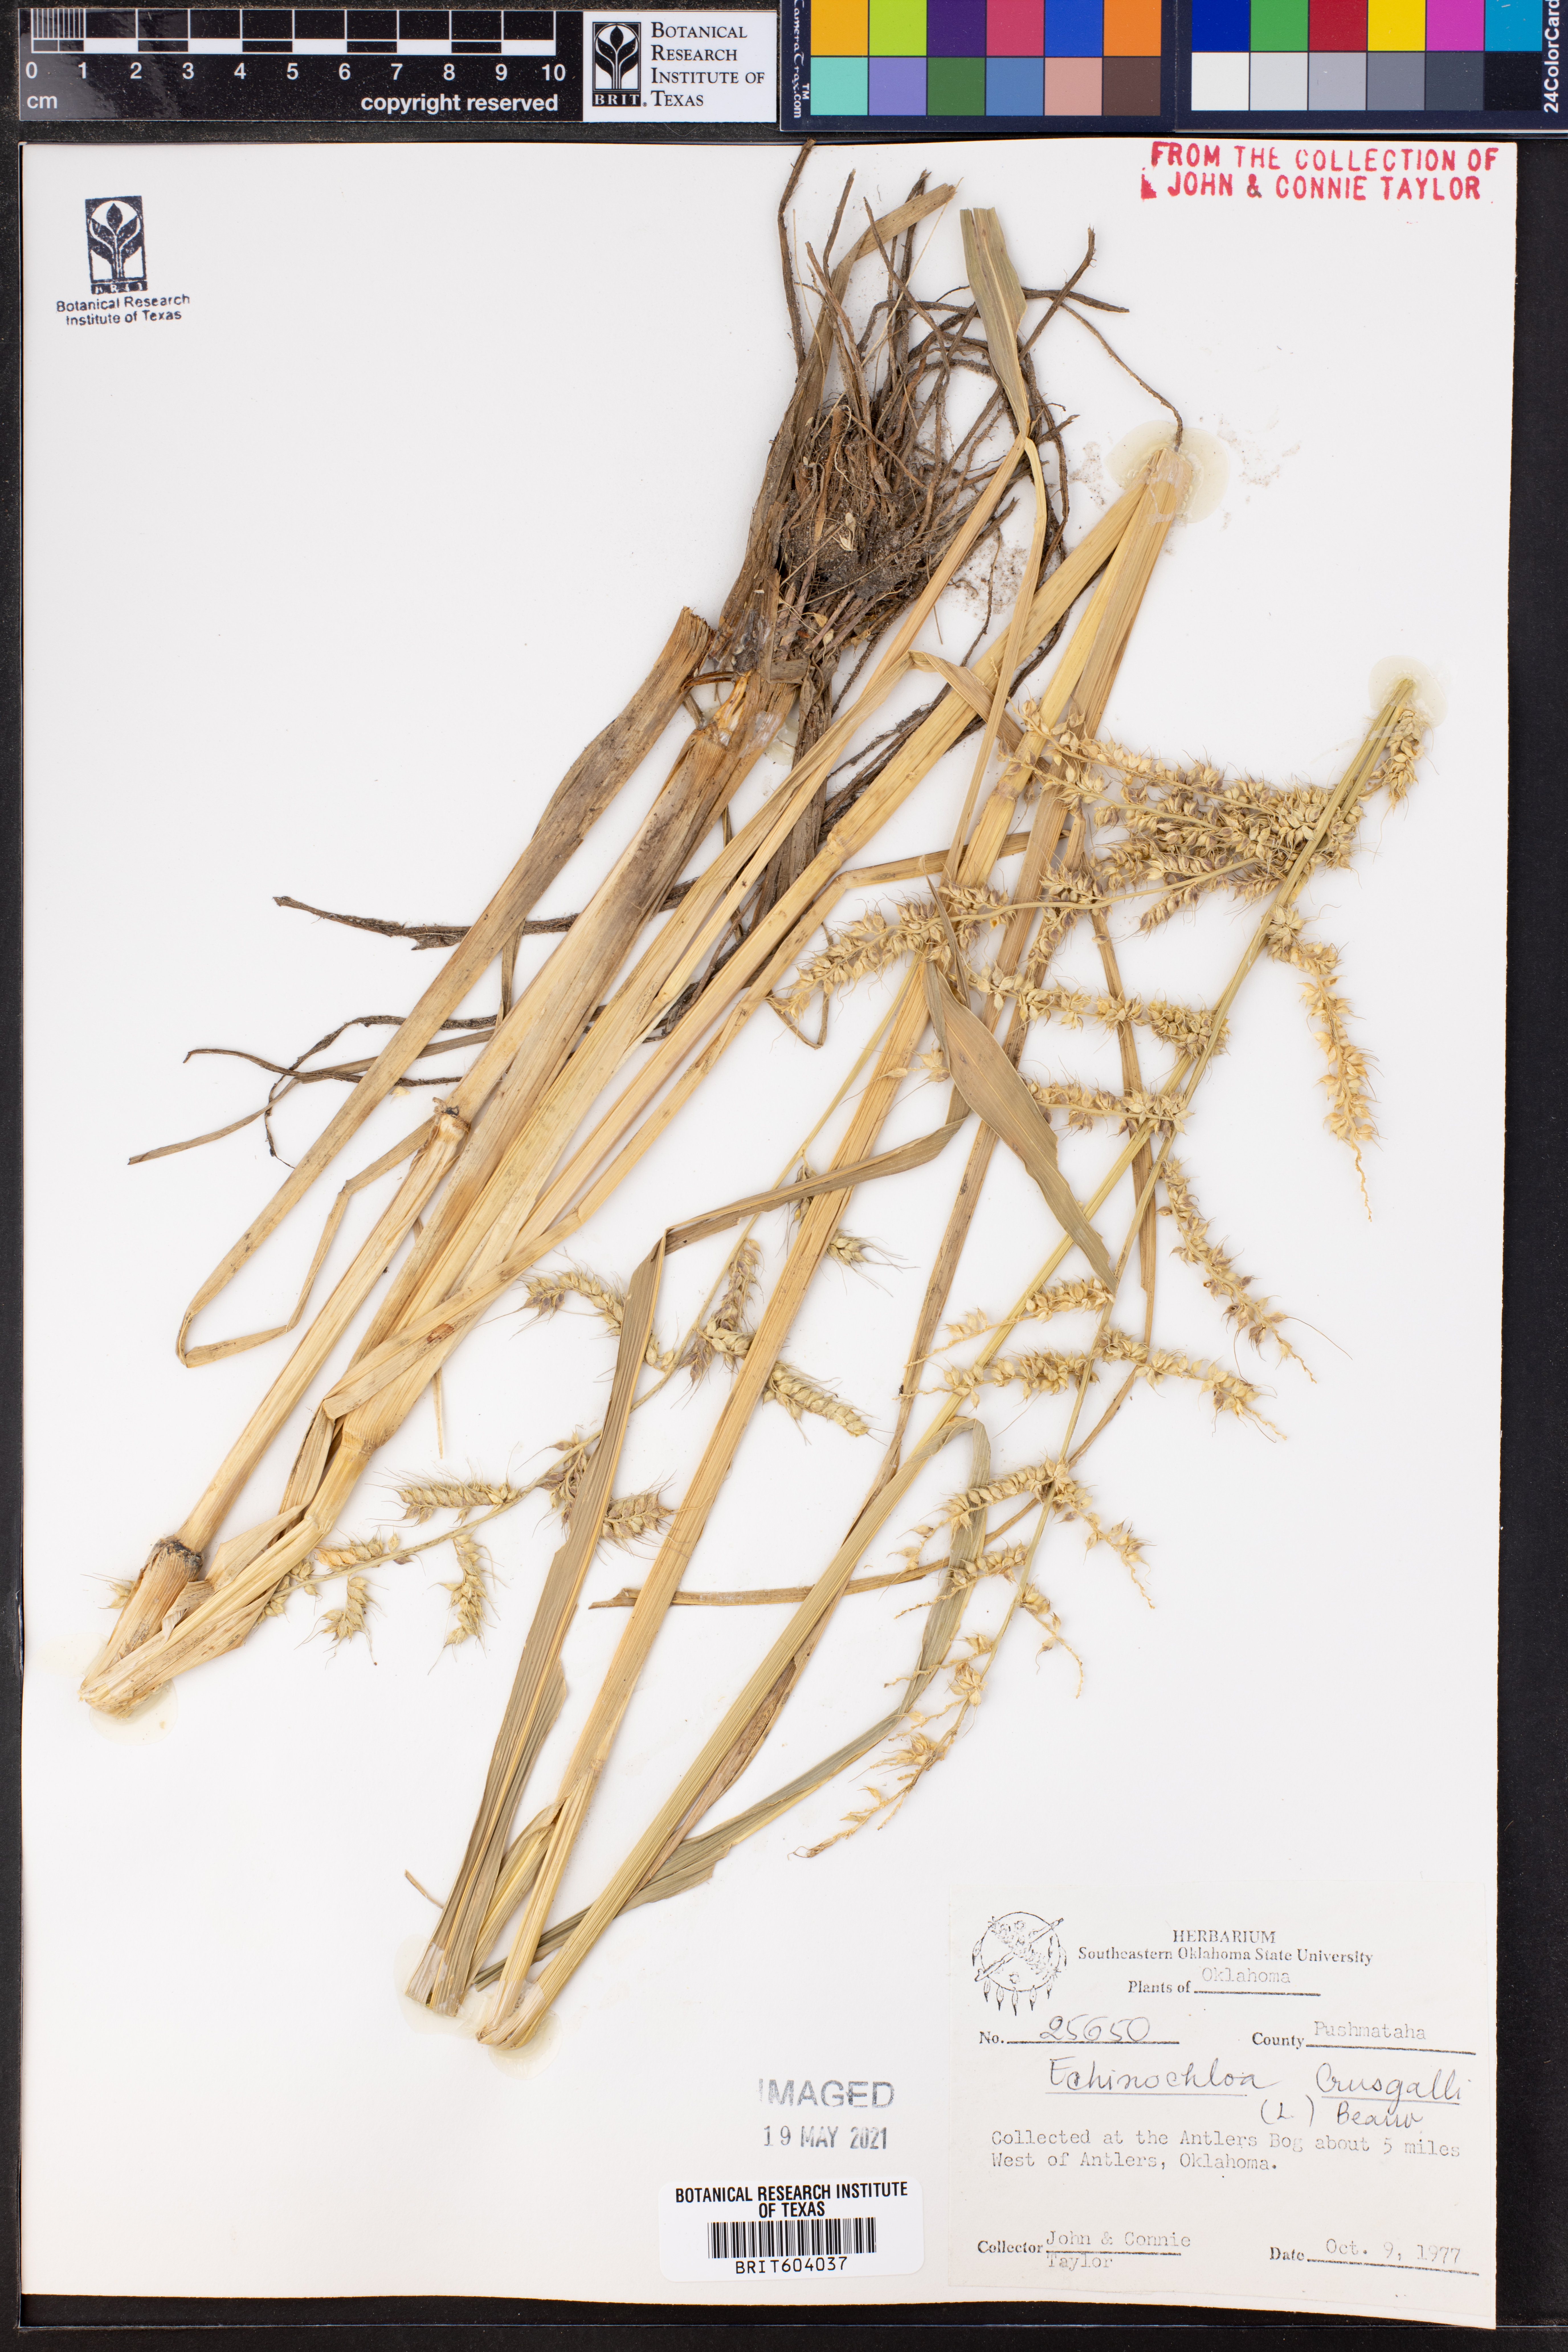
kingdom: Plantae
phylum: Tracheophyta
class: Liliopsida
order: Poales
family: Poaceae
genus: Echinochloa
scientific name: Echinochloa crus-galli
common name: Cockspur
